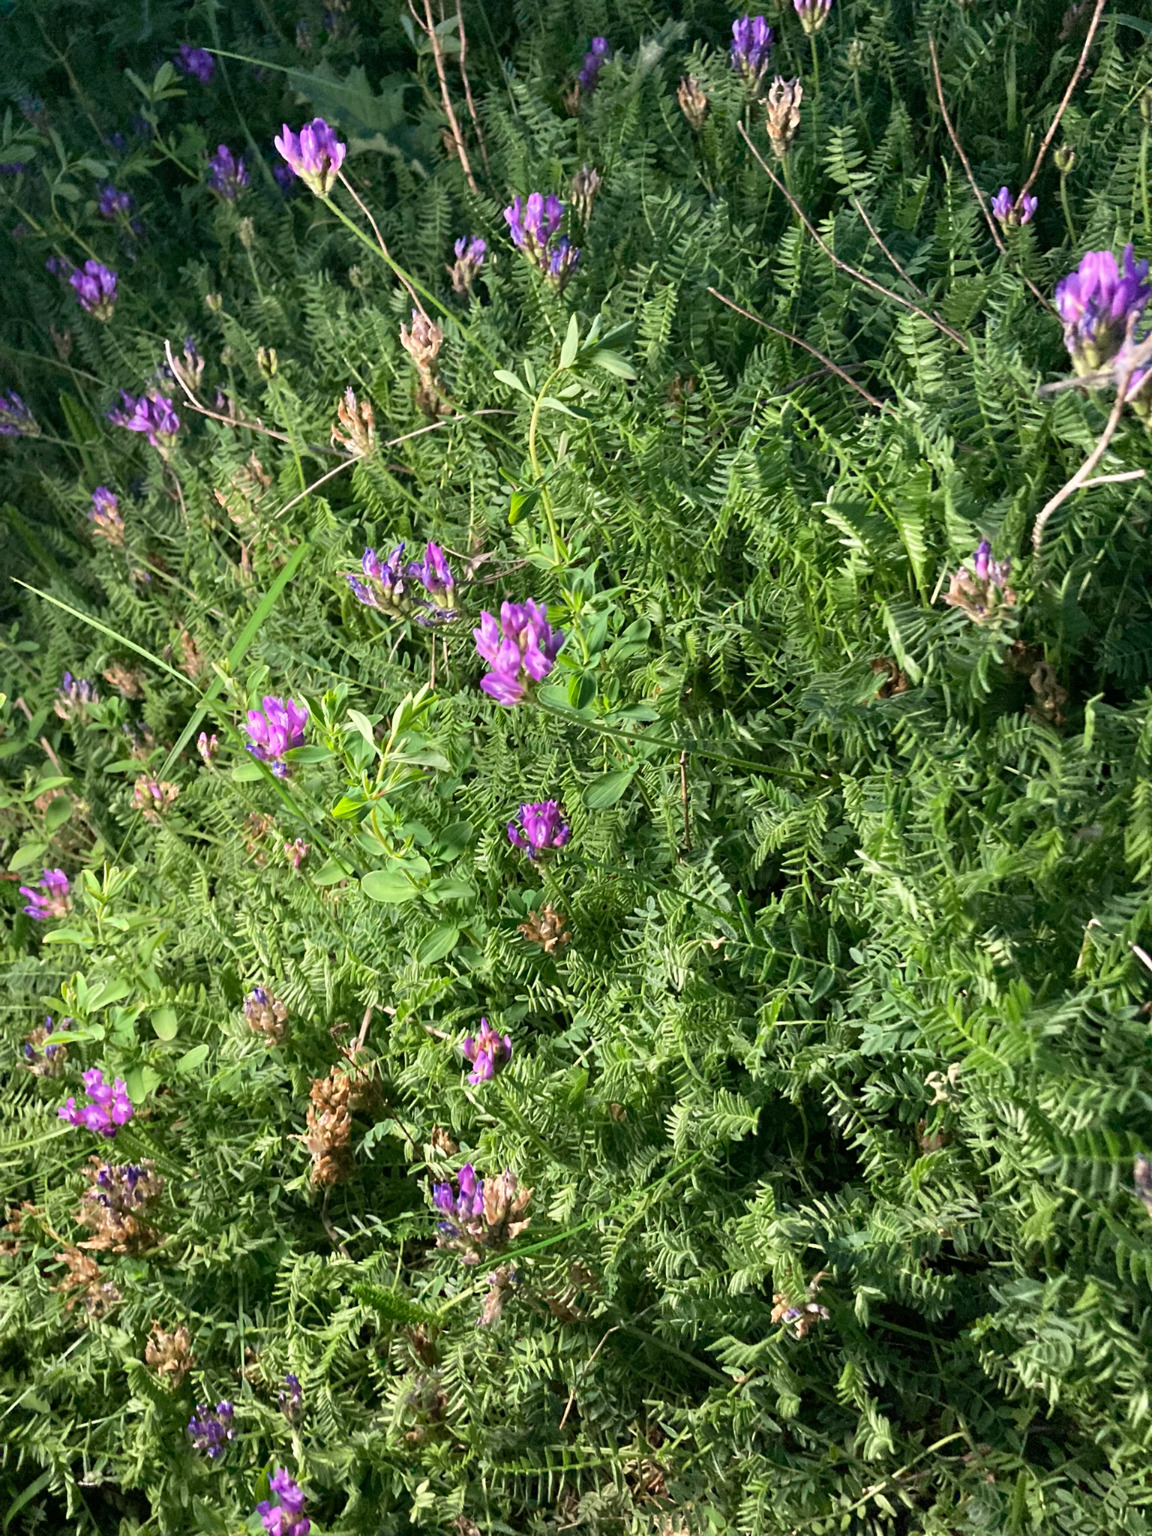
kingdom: Plantae
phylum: Tracheophyta
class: Magnoliopsida
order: Fabales
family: Fabaceae
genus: Astragalus
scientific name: Astragalus danicus
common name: Dansk astragel
